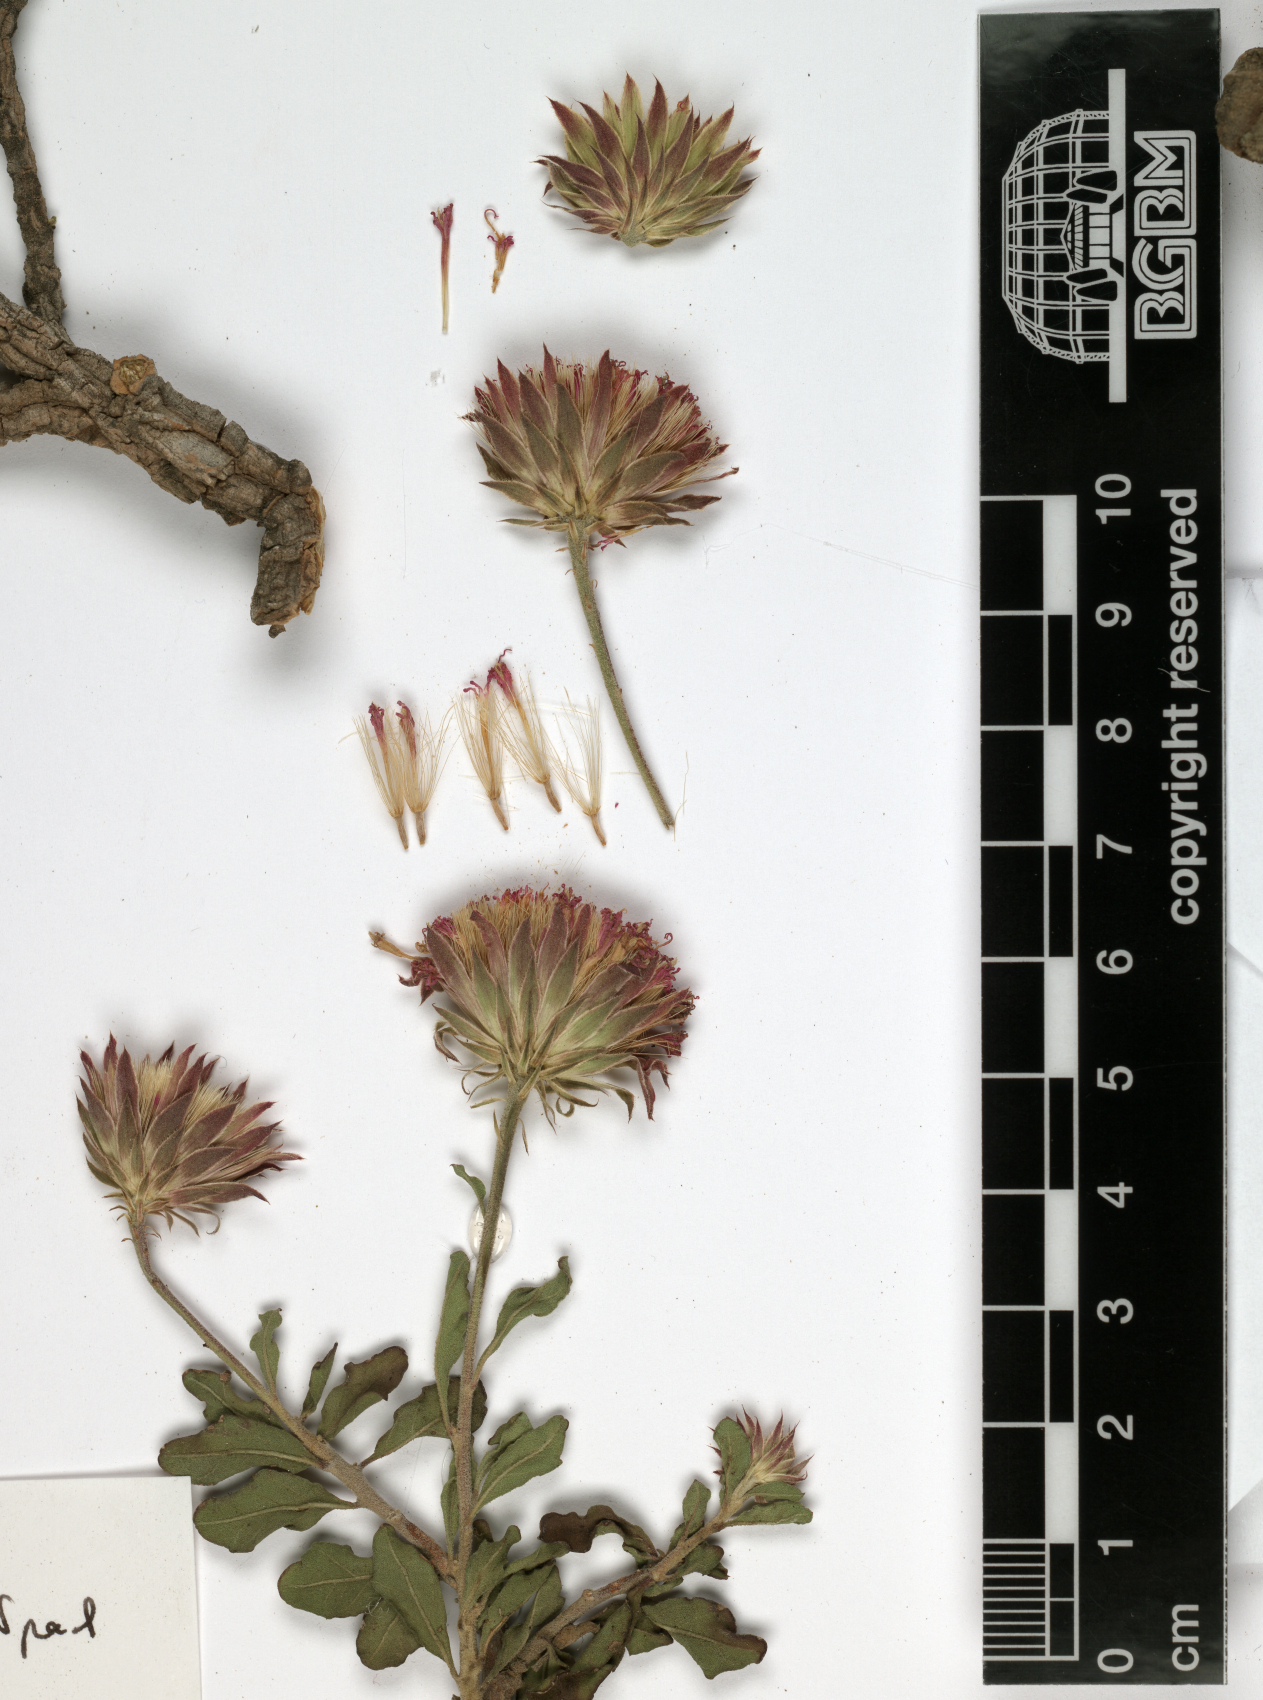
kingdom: Plantae
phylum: Tracheophyta
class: Magnoliopsida
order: Asterales
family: Asteraceae
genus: Vernonia
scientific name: Vernonia bottae
